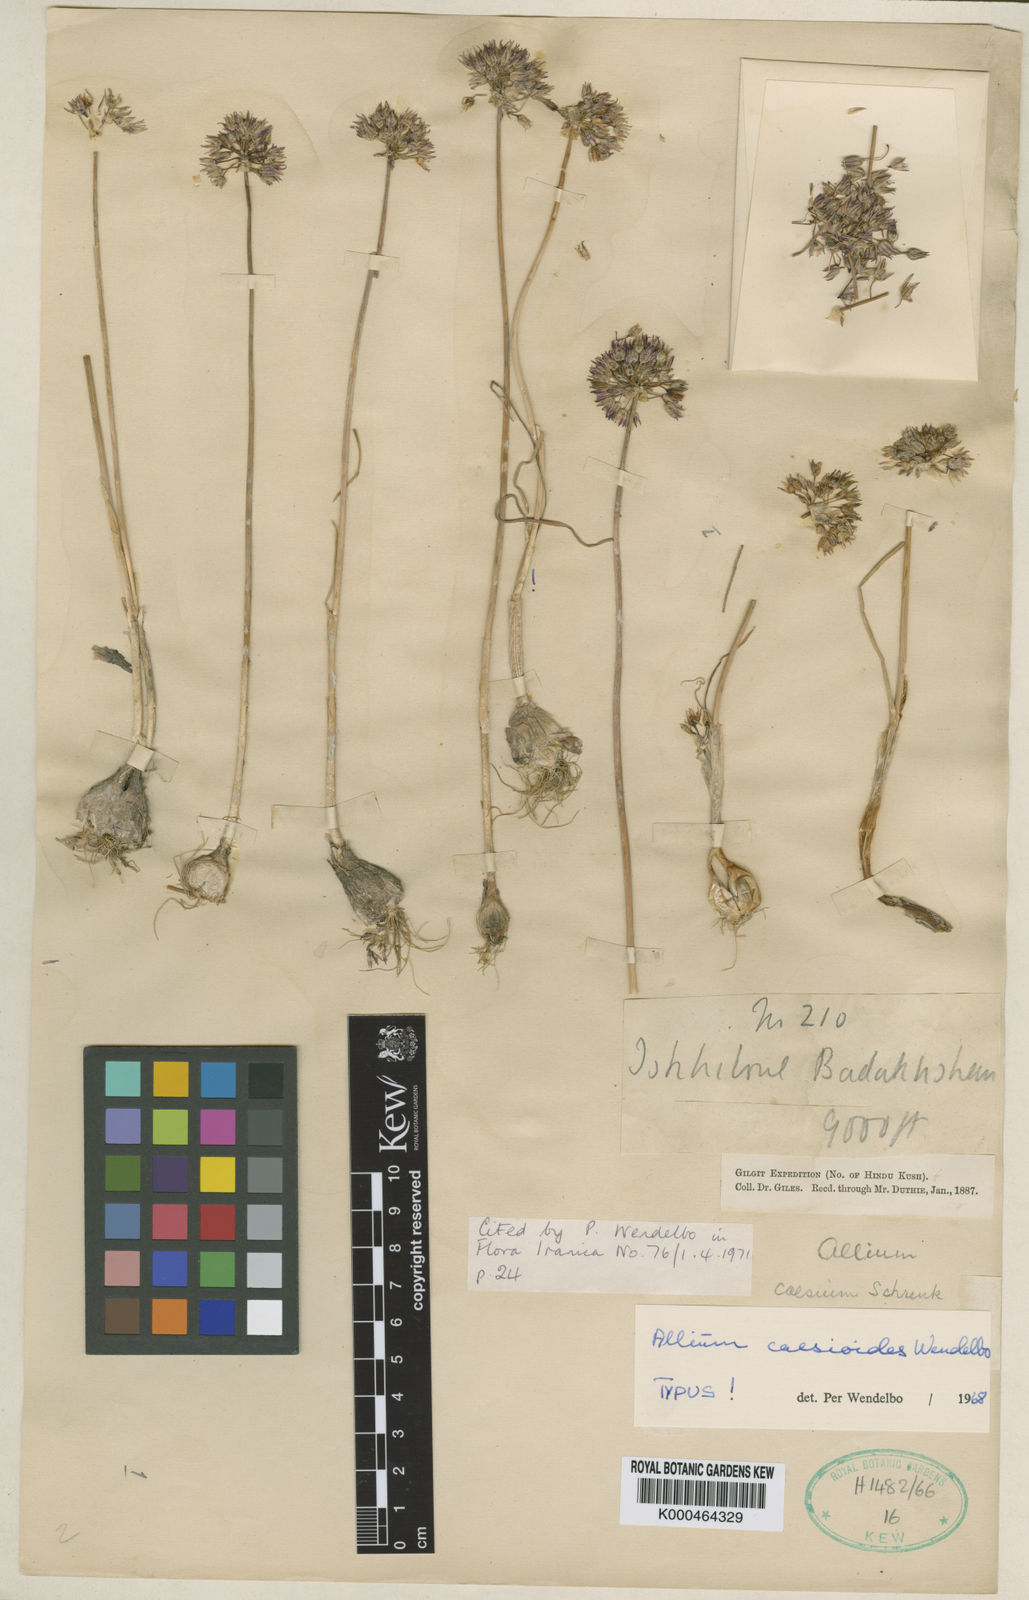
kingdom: Plantae
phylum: Tracheophyta
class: Liliopsida
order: Asparagales
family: Amaryllidaceae
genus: Allium
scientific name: Allium caesioides
